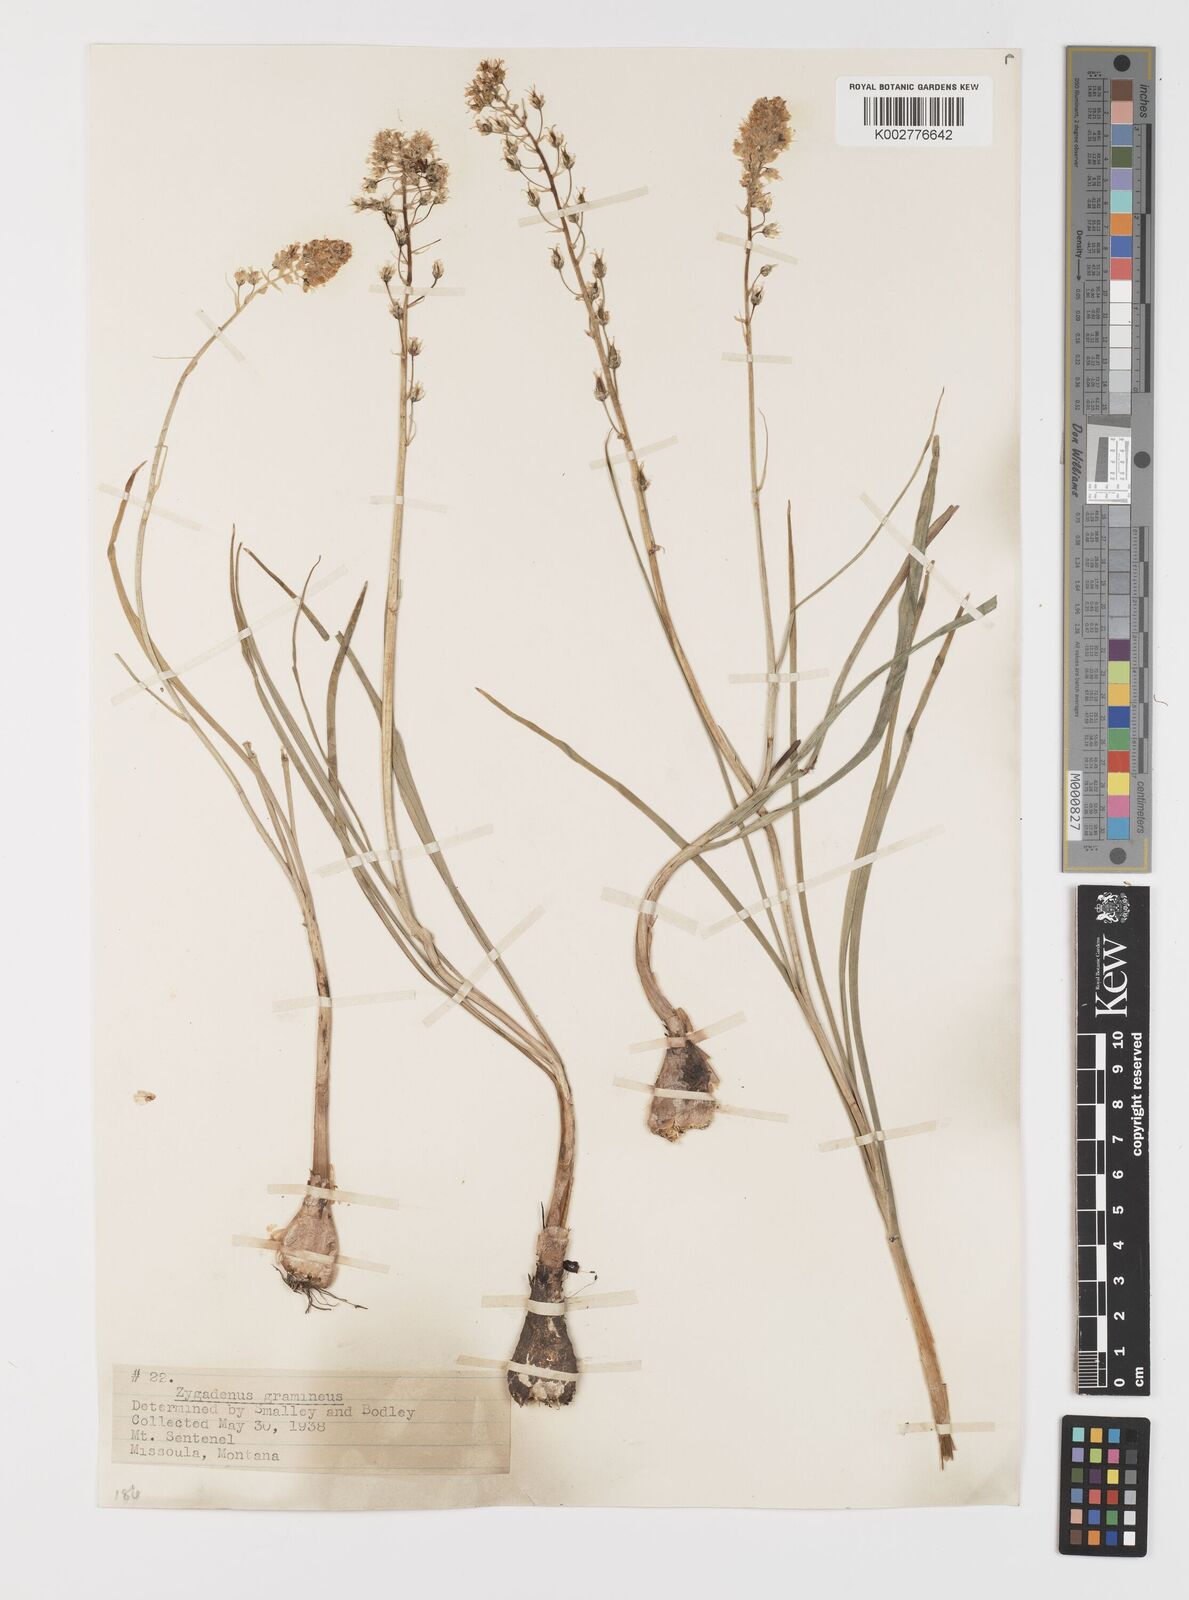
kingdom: Plantae
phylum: Tracheophyta
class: Liliopsida
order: Liliales
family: Melanthiaceae
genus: Toxicoscordion
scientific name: Toxicoscordion venenosum
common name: Meadow death camas
